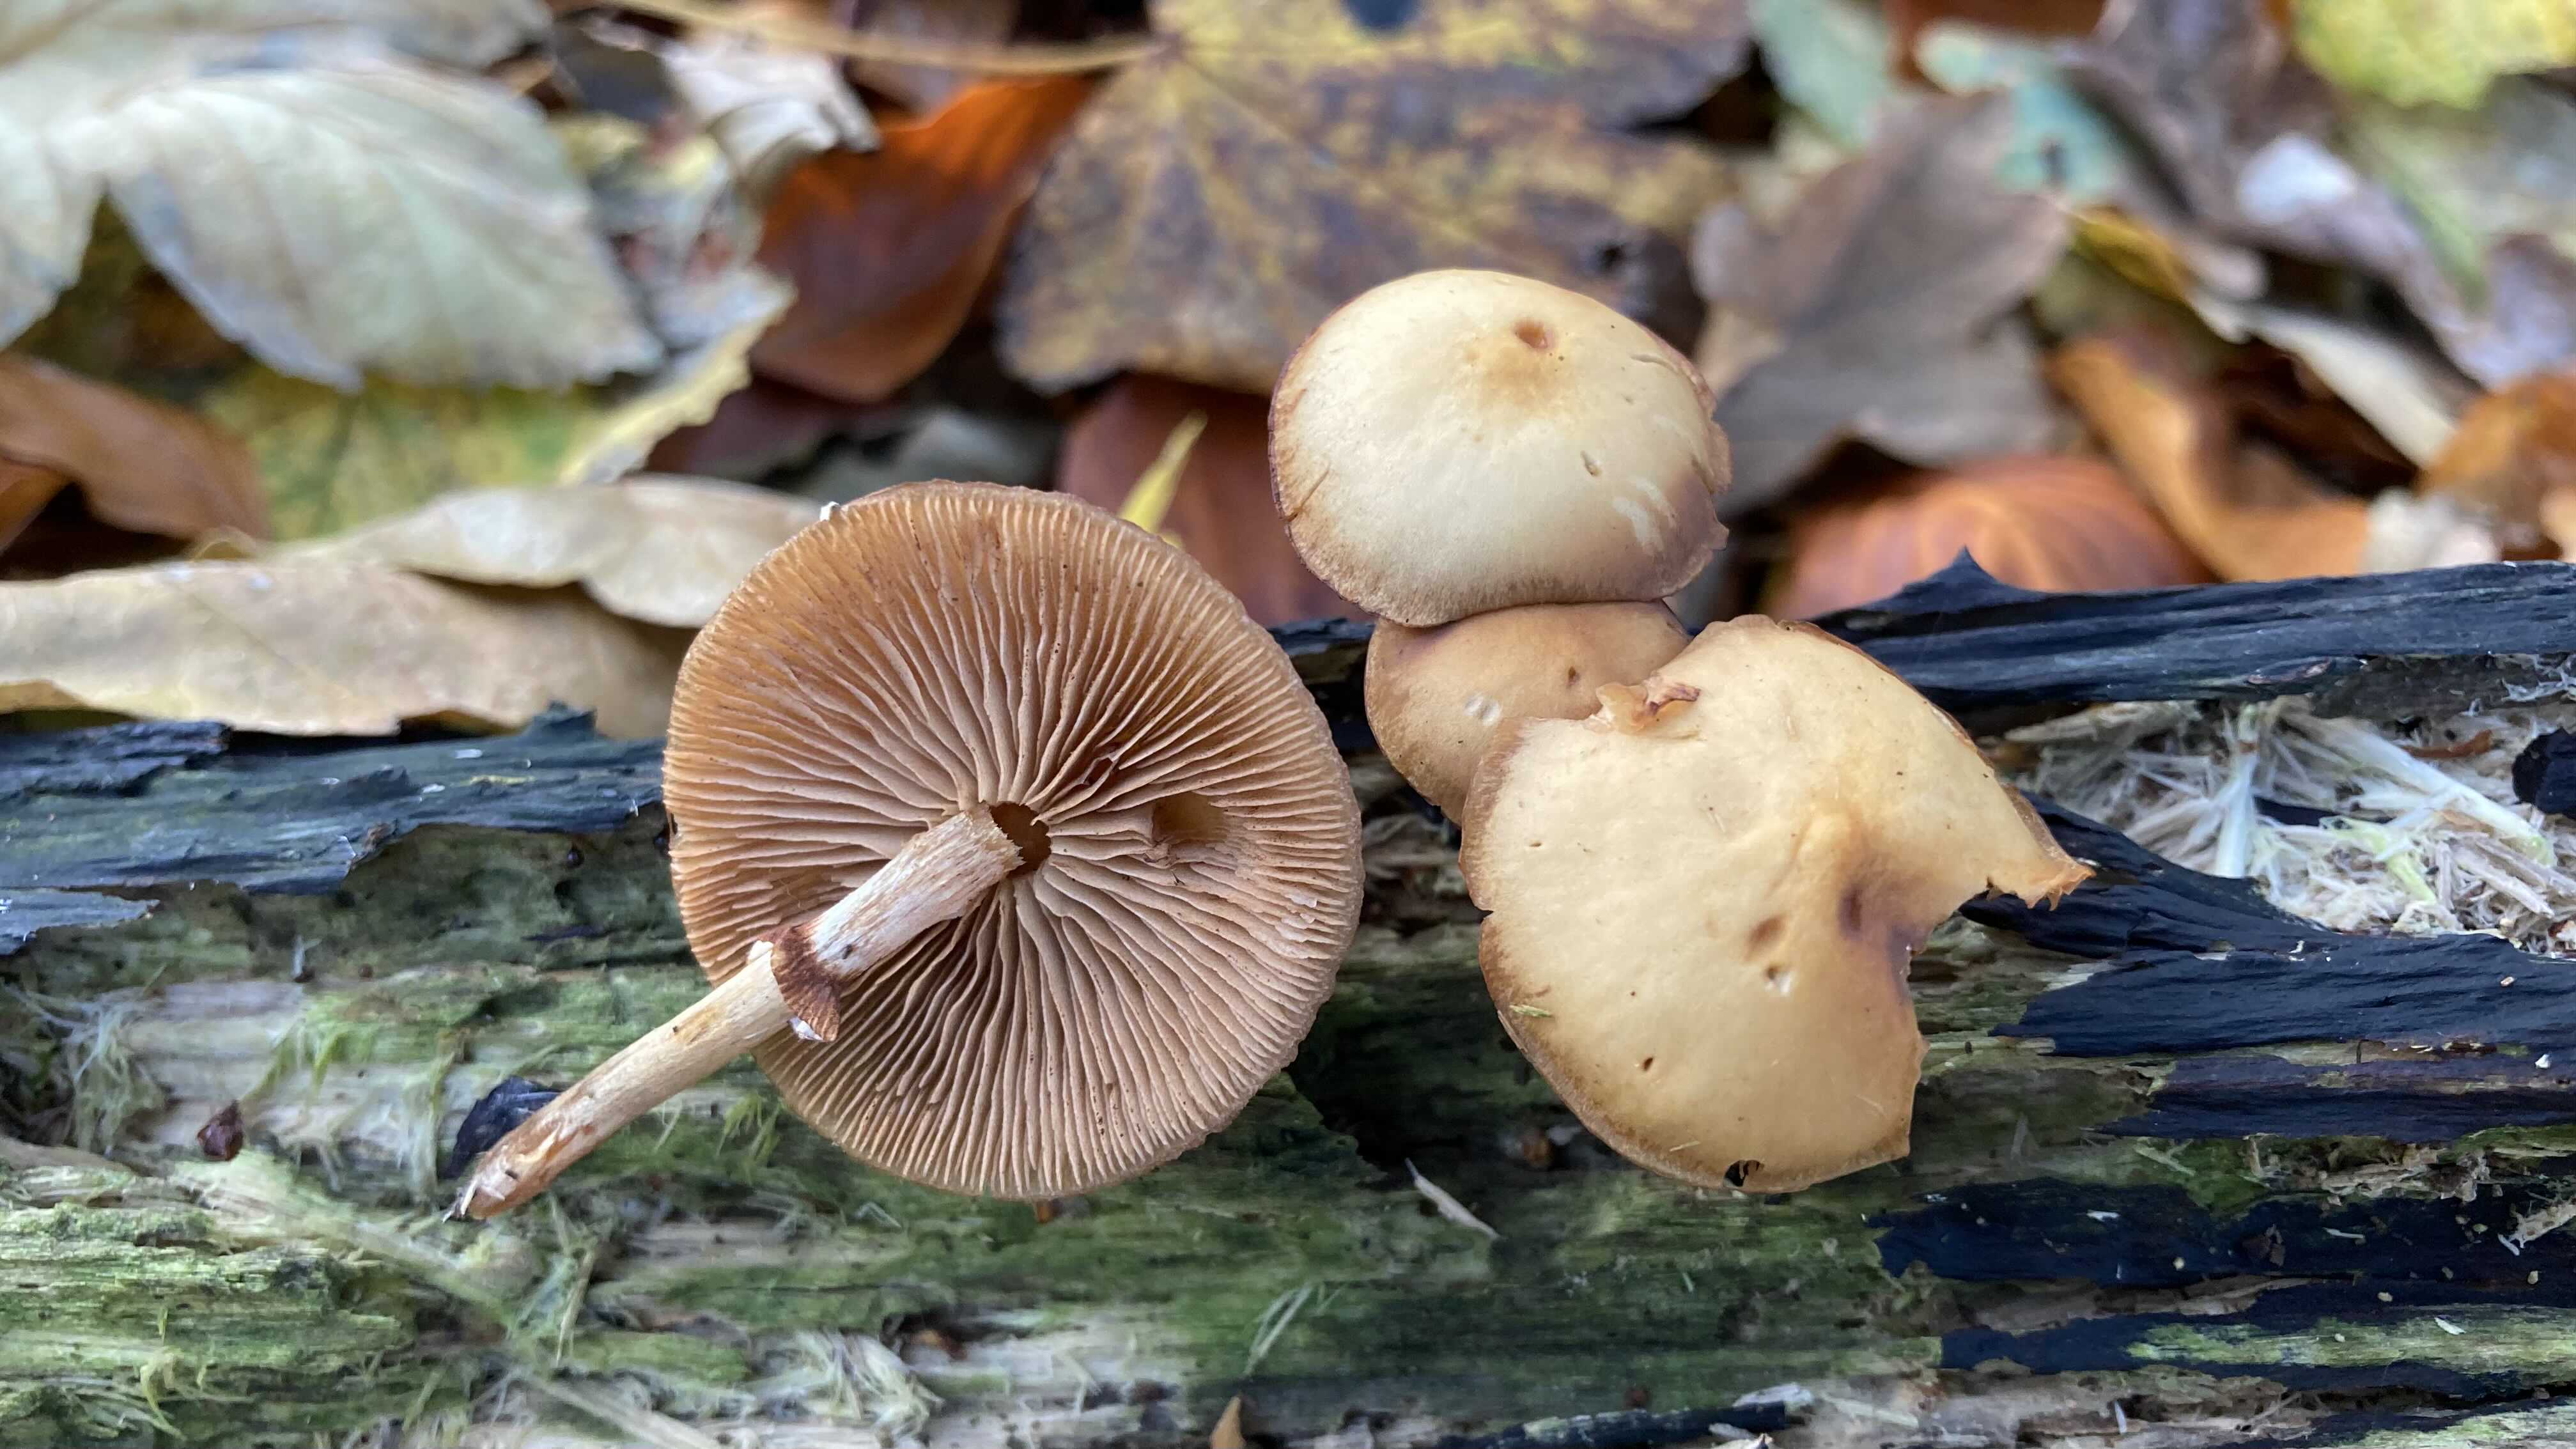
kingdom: Fungi
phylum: Basidiomycota
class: Agaricomycetes
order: Agaricales
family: Hymenogastraceae
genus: Galerina
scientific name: Galerina marginata
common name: randbæltet hjelmhat
